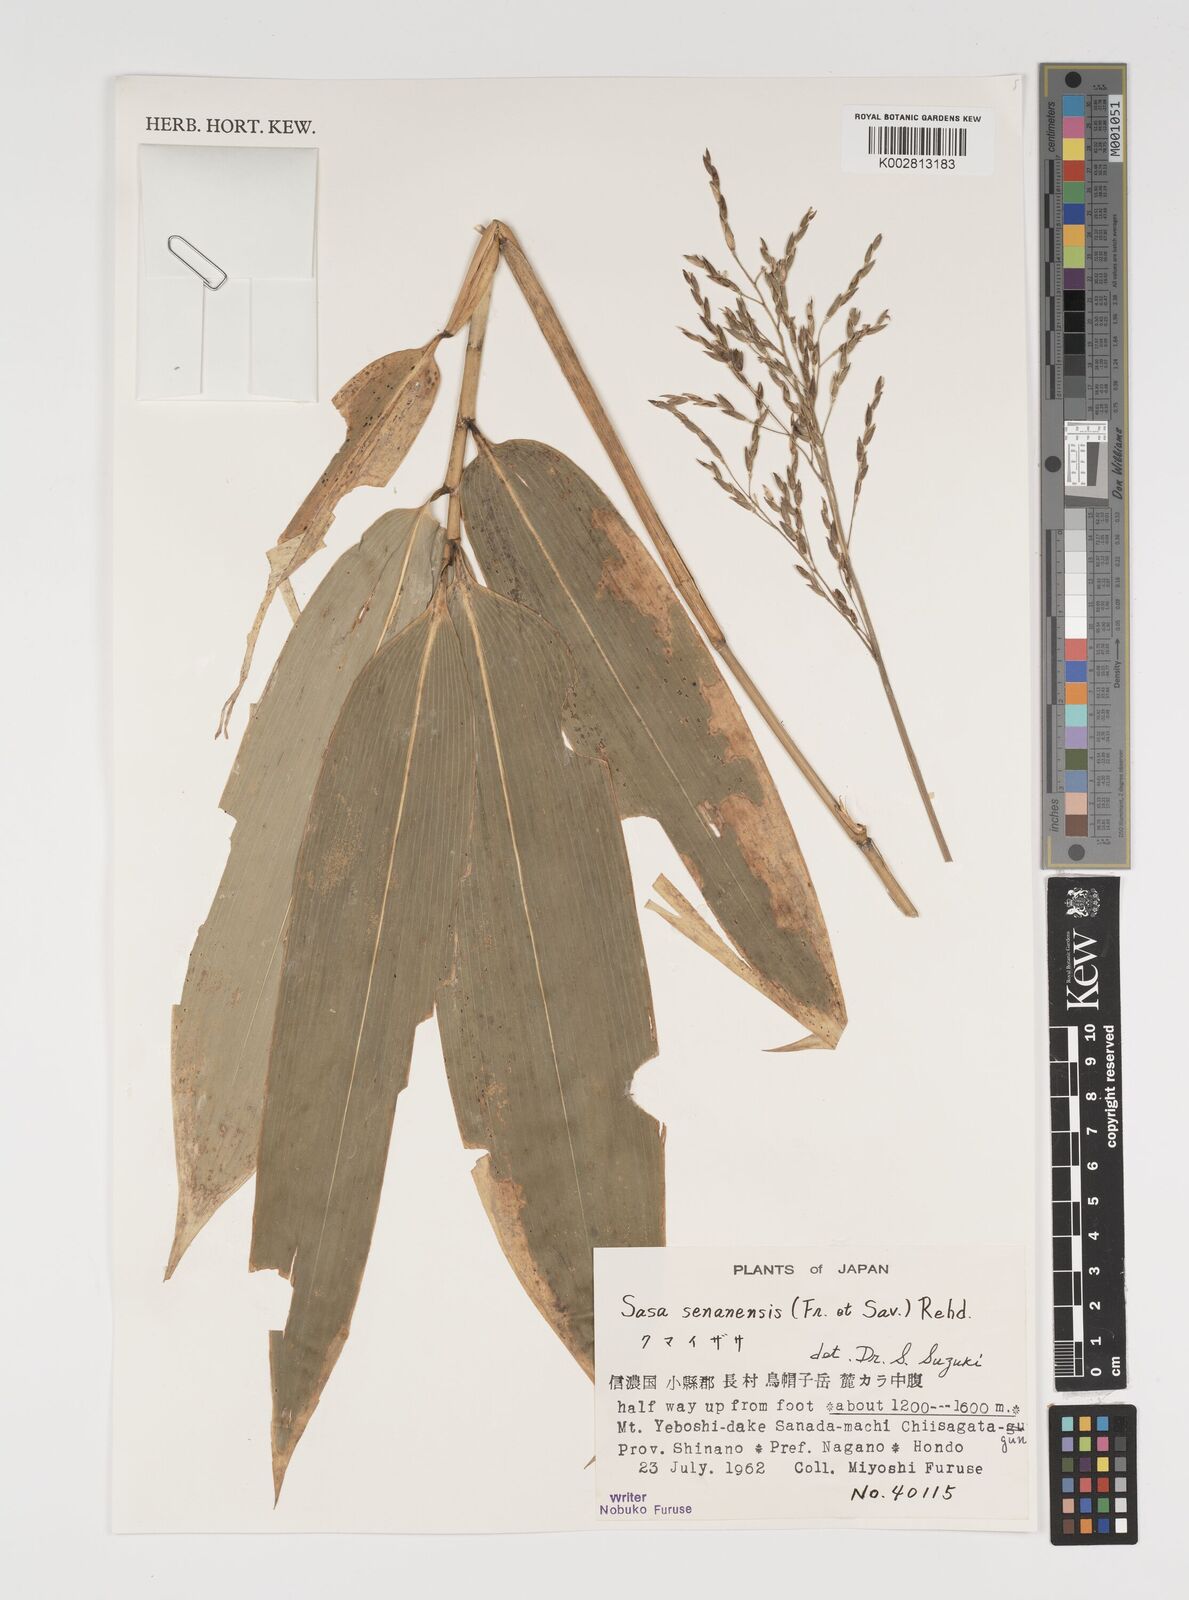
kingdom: Plantae
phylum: Tracheophyta
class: Liliopsida
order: Poales
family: Poaceae
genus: Sasa
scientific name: Sasa senanensis
